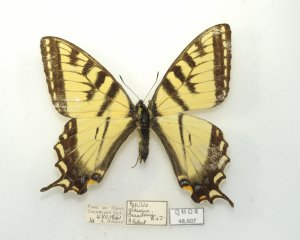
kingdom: Animalia
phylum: Arthropoda
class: Insecta
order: Lepidoptera
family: Papilionidae
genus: Pterourus
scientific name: Pterourus canadensis
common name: Canadian Tiger Swallowtail
